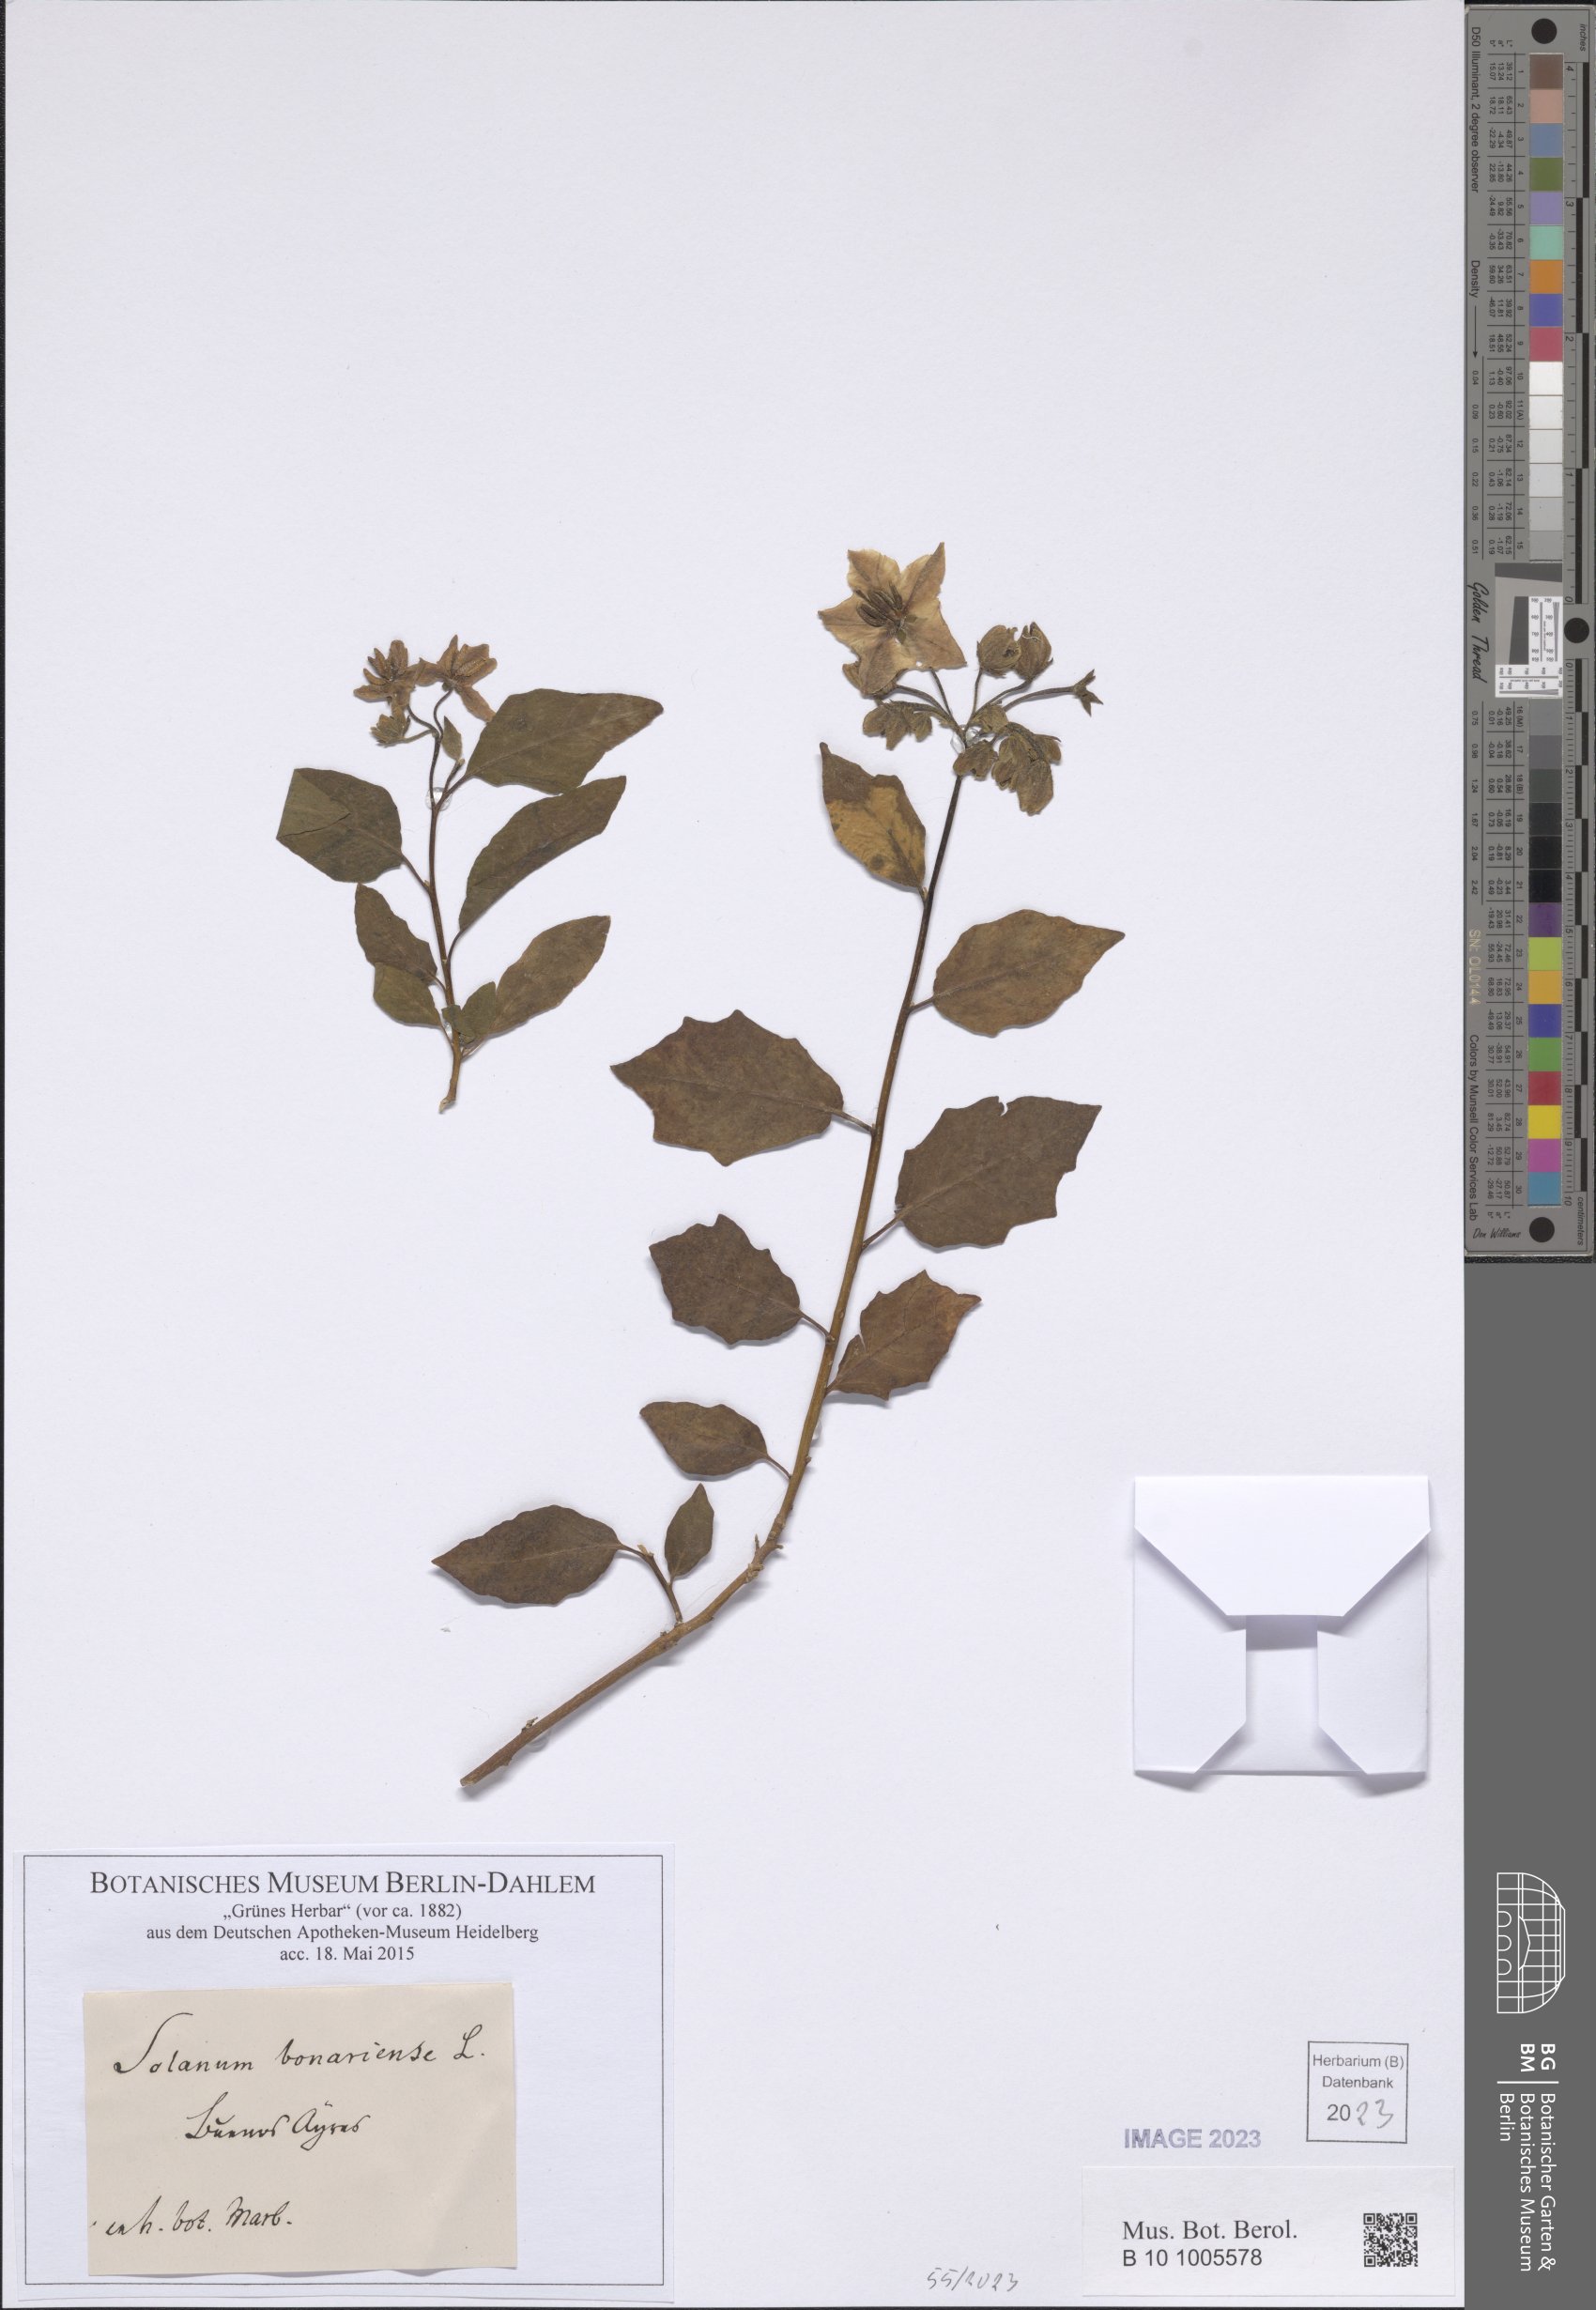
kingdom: Plantae
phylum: Tracheophyta
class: Magnoliopsida
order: Solanales
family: Solanaceae
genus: Solanum
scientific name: Solanum bonariense
